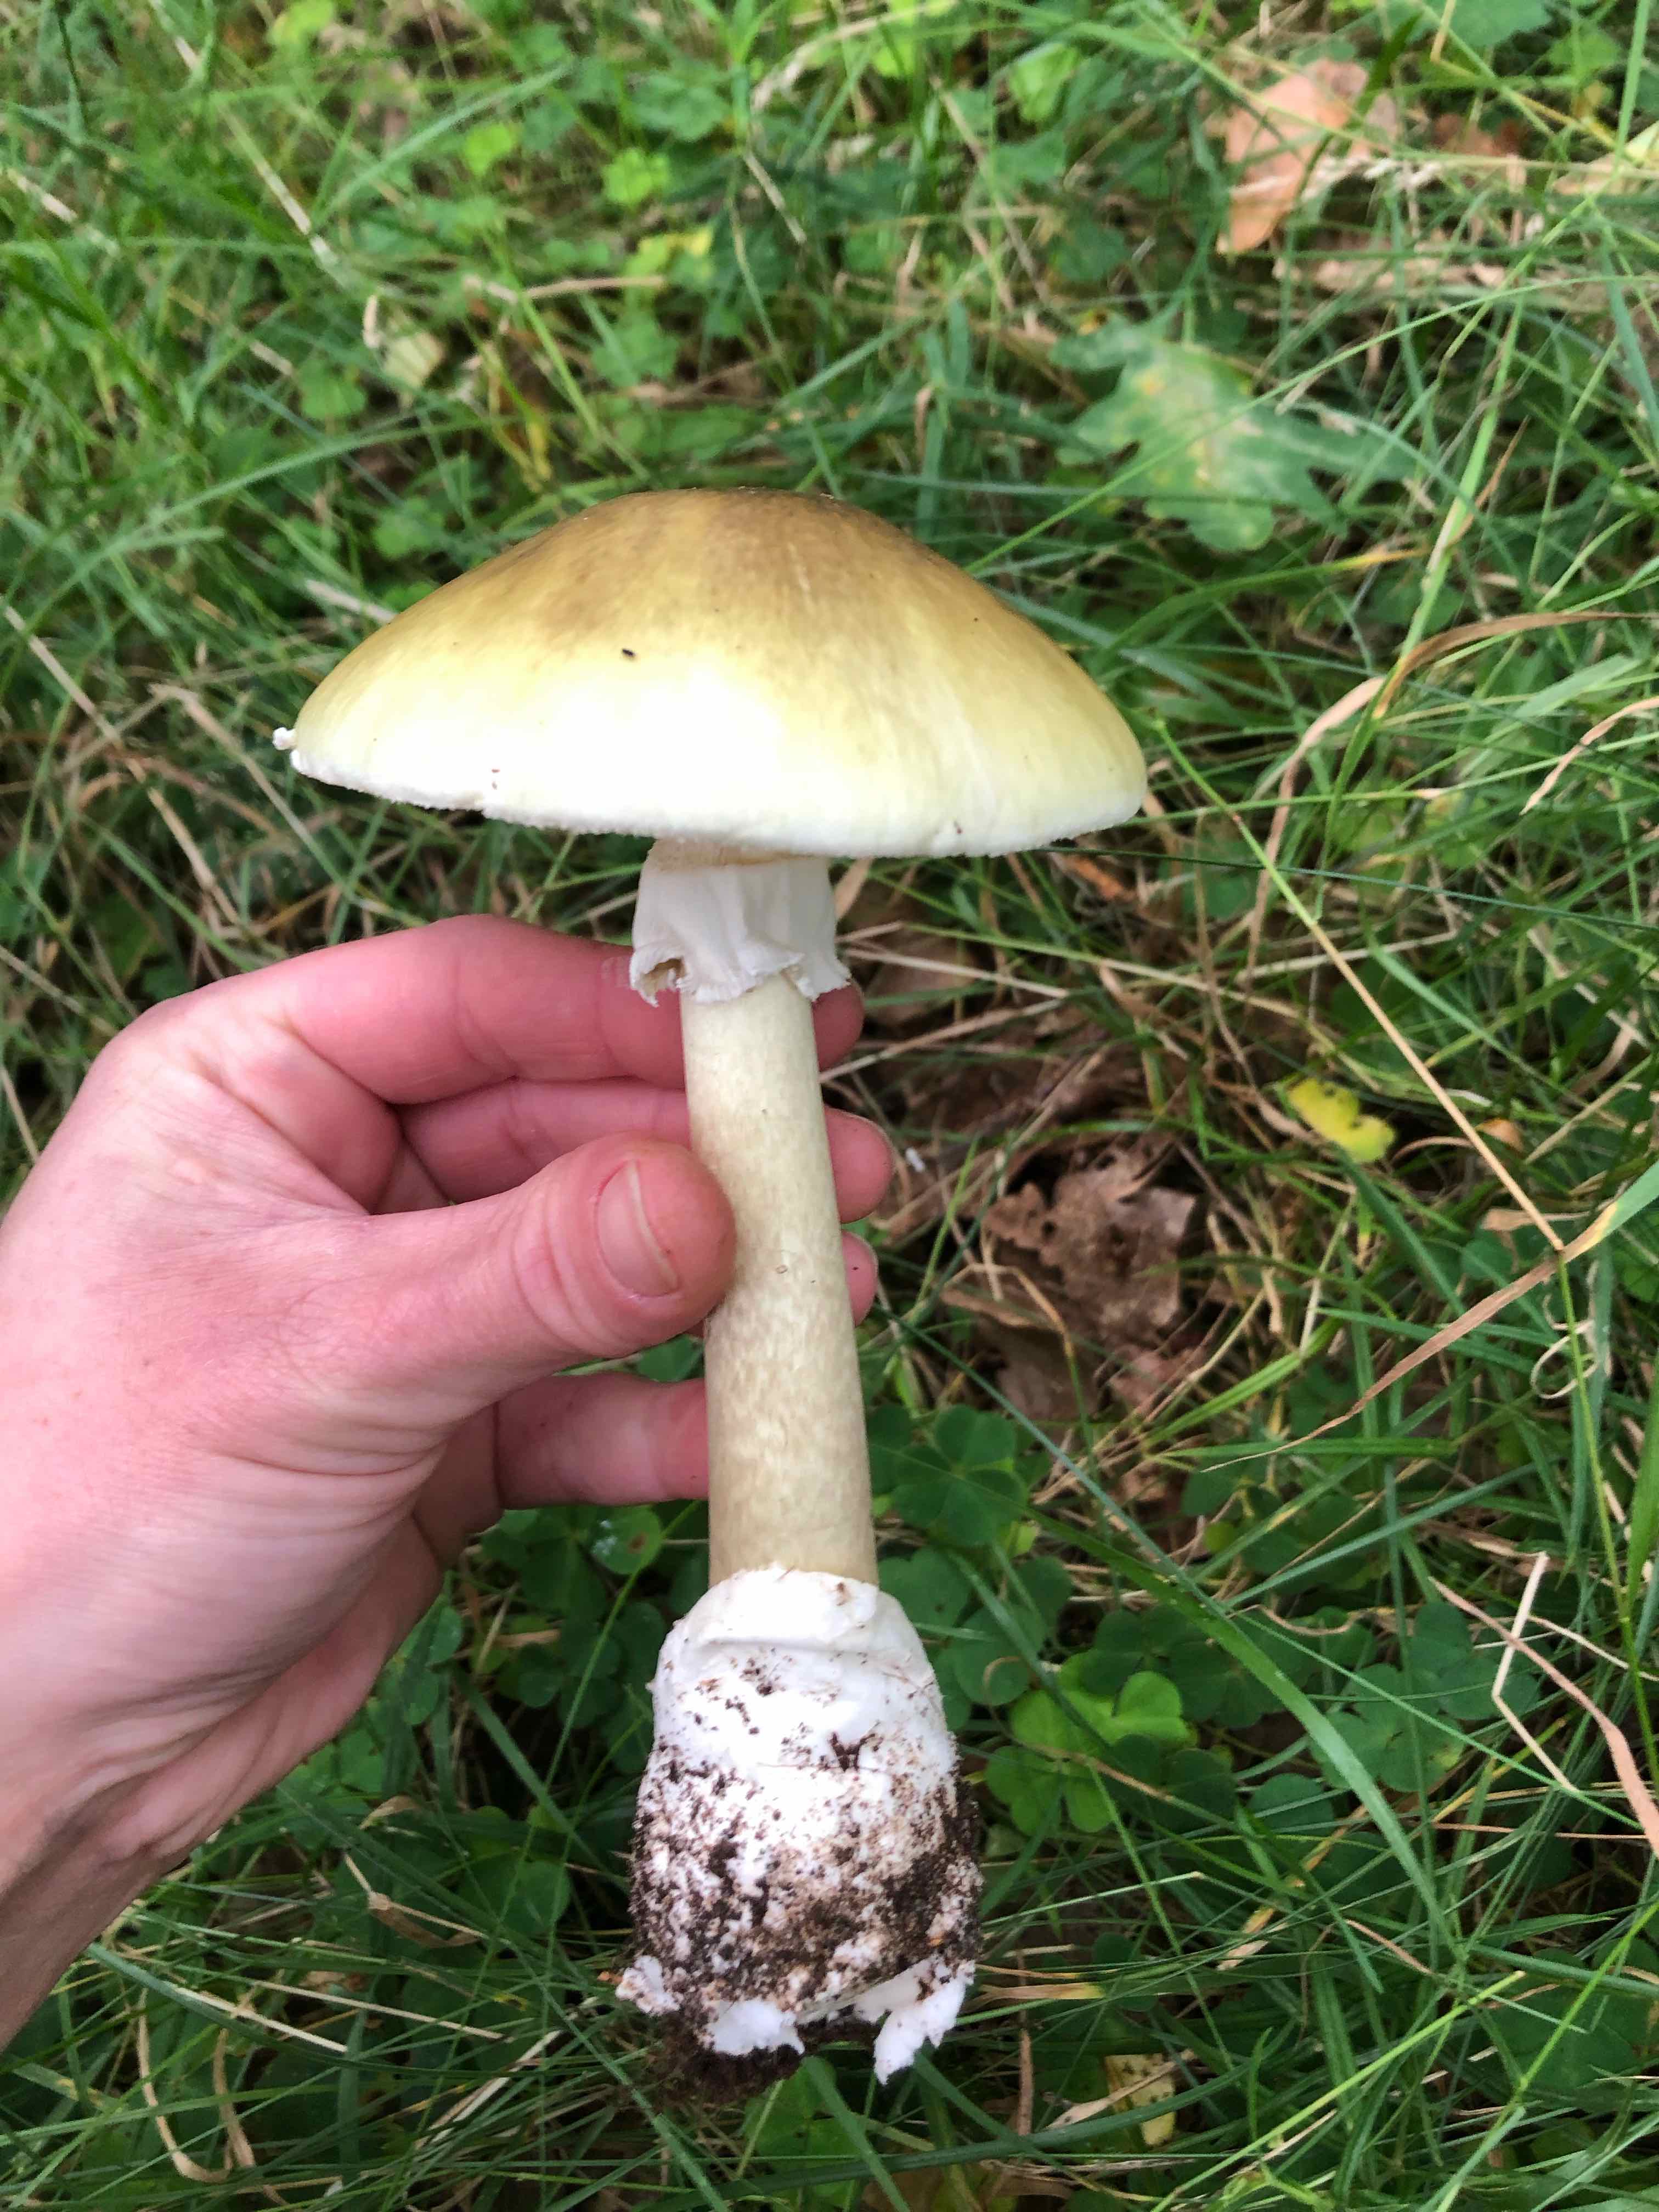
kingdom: Fungi
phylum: Basidiomycota
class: Agaricomycetes
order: Agaricales
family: Amanitaceae
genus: Amanita
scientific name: Amanita phalloides
